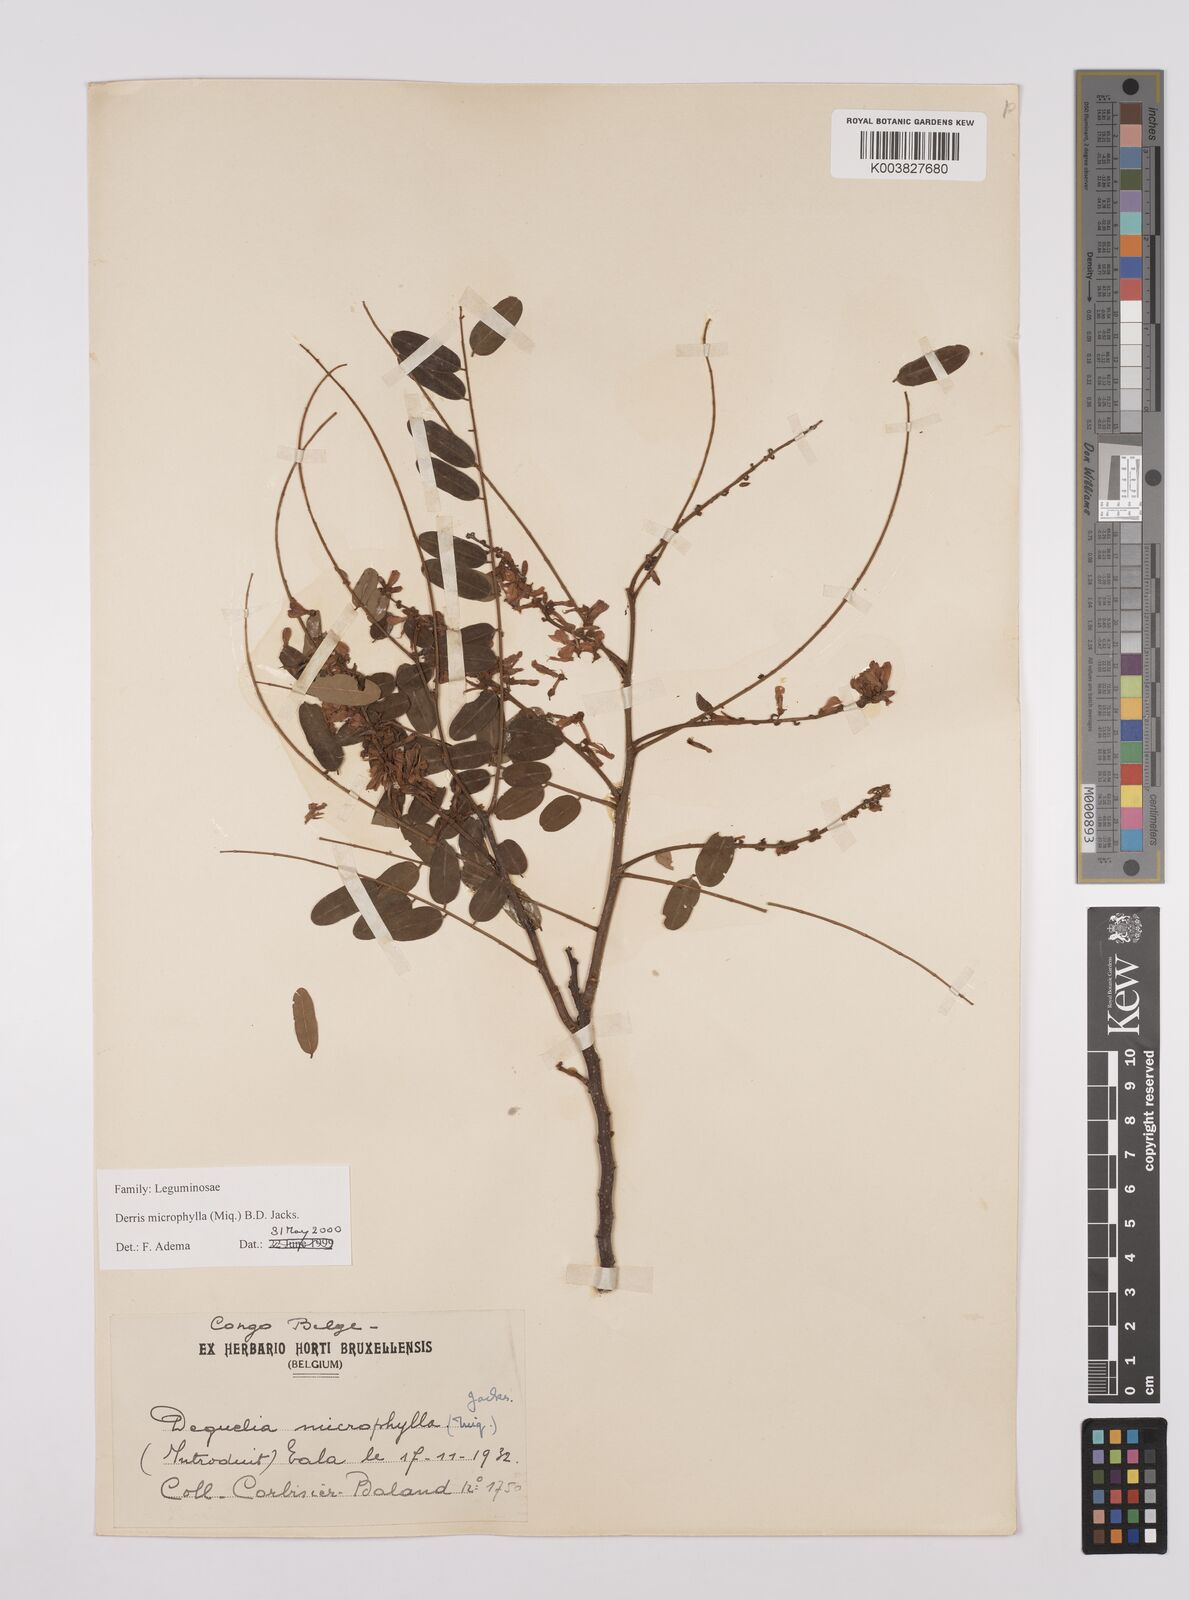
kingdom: Plantae
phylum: Tracheophyta
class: Magnoliopsida
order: Fabales
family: Fabaceae
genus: Brachypterum
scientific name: Brachypterum microphyllum
